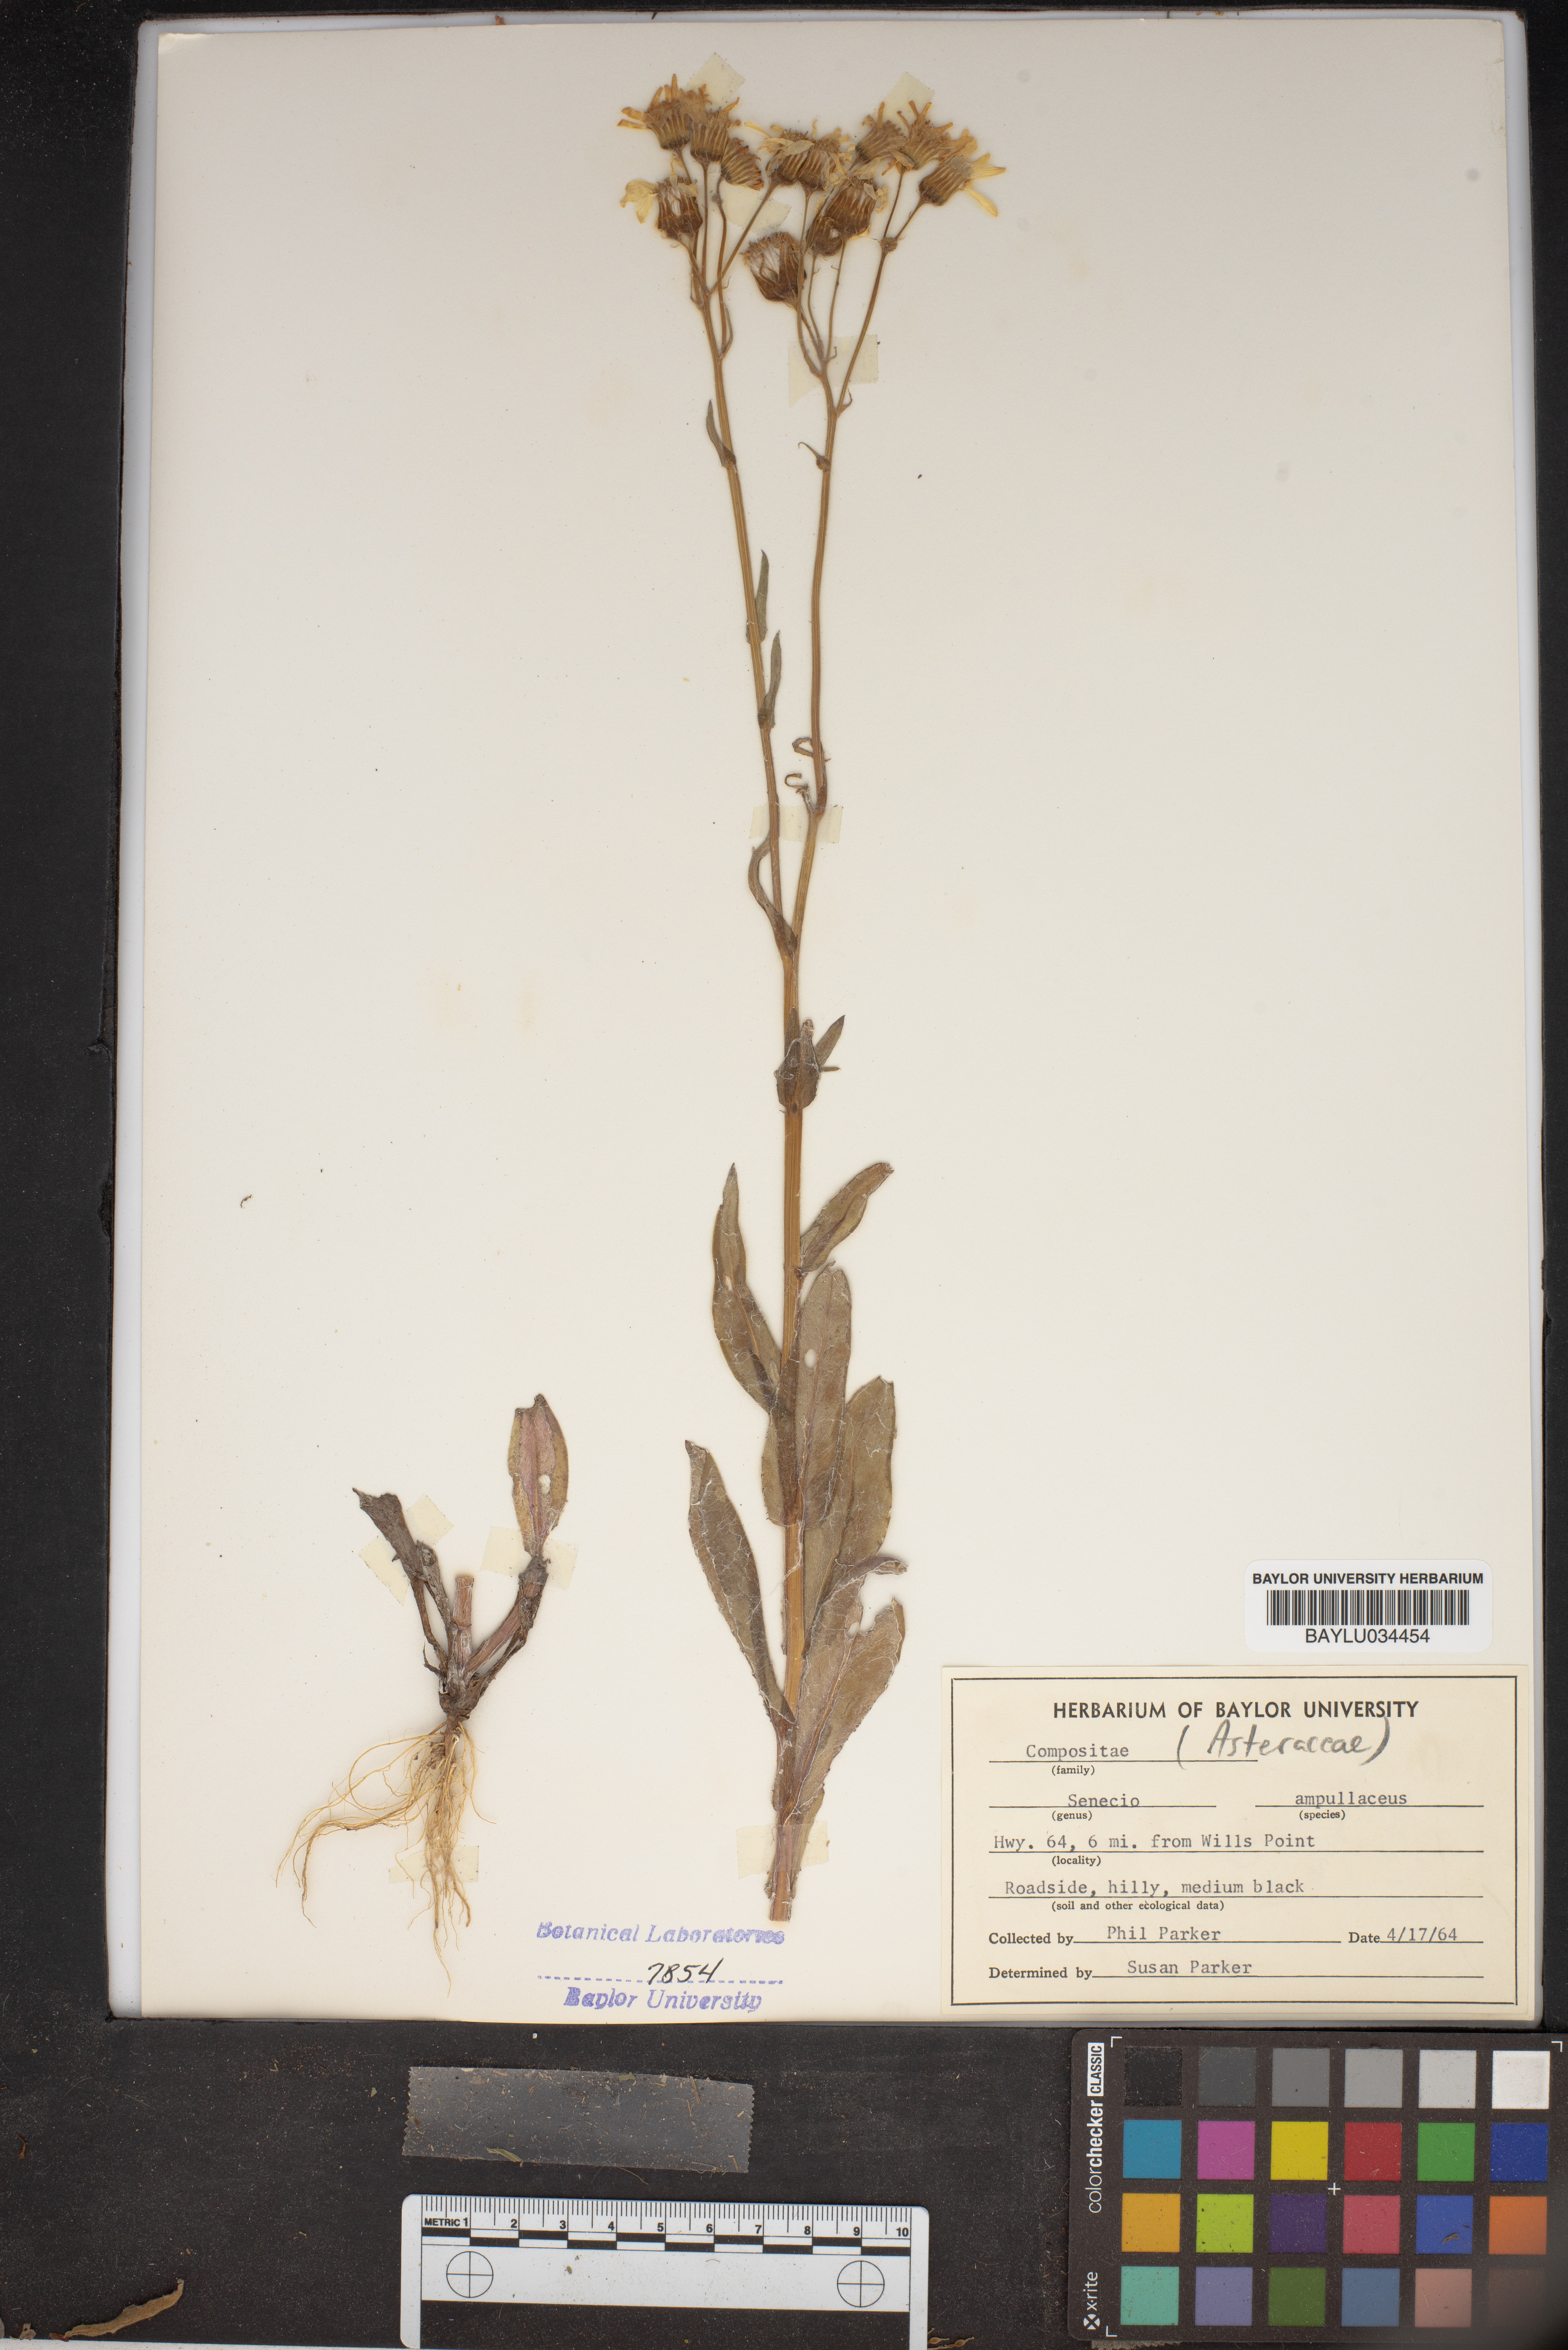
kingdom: Plantae
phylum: Tracheophyta
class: Magnoliopsida
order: Asterales
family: Asteraceae
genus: Senecio
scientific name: Senecio ampullaceus
